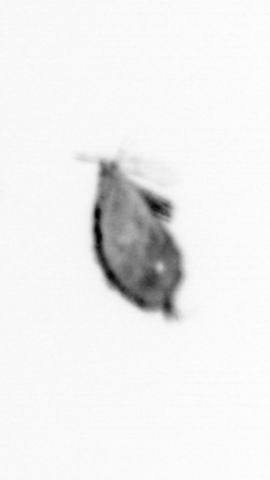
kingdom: Animalia
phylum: Arthropoda
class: Copepoda
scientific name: Copepoda
